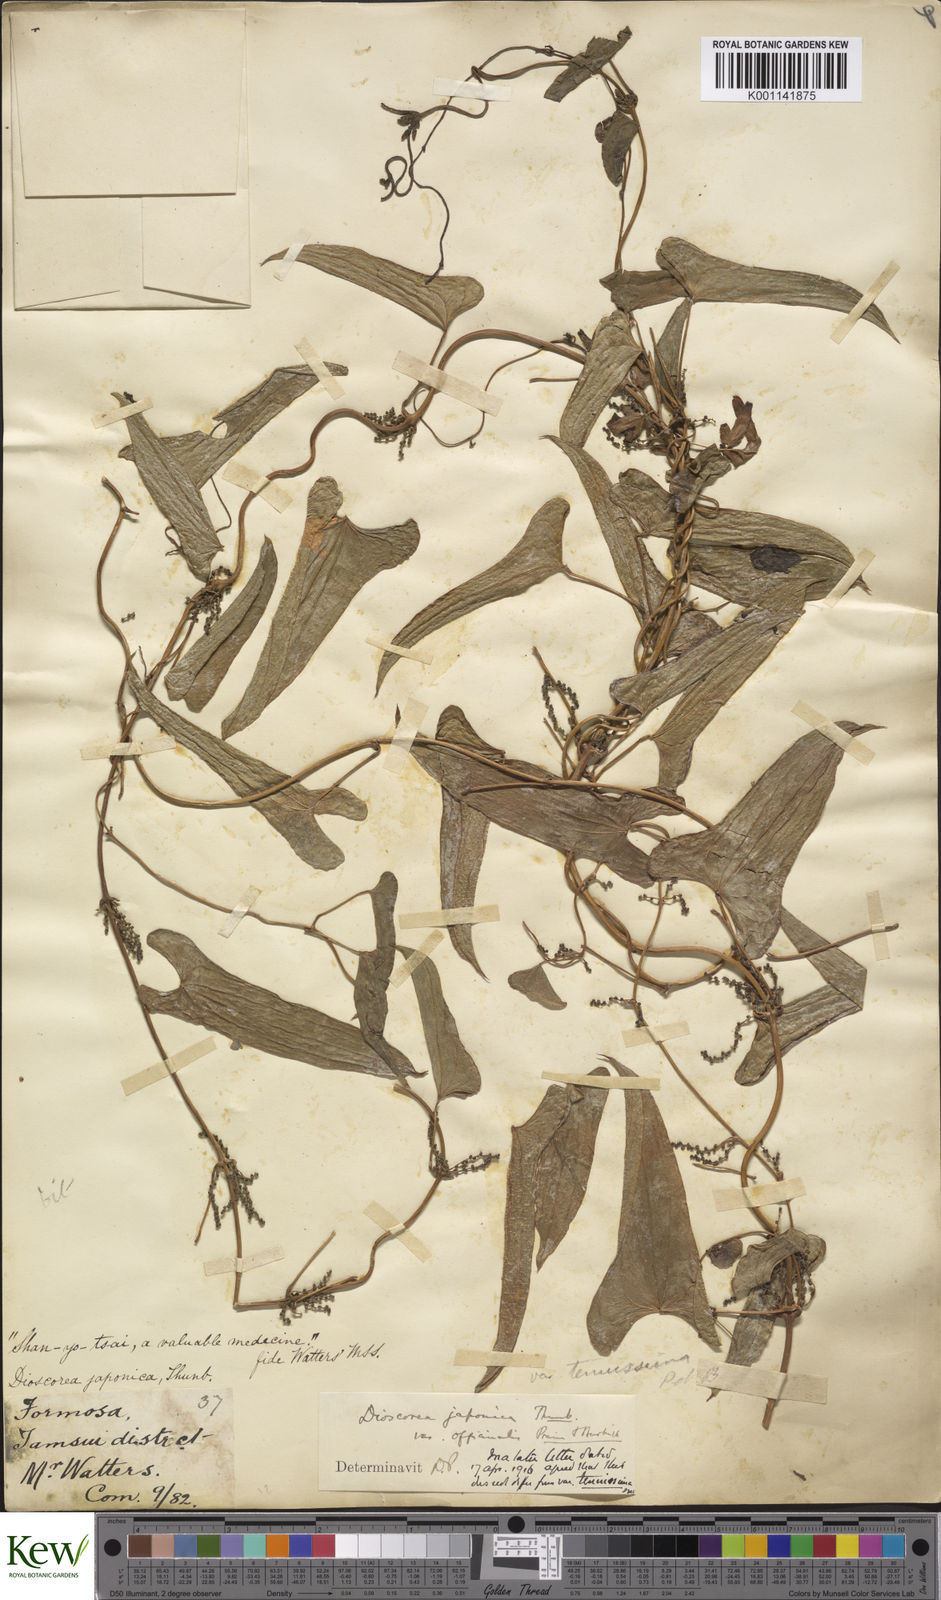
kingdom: Plantae
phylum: Tracheophyta
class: Liliopsida
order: Dioscoreales
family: Dioscoreaceae
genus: Dioscorea
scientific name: Dioscorea japonica
